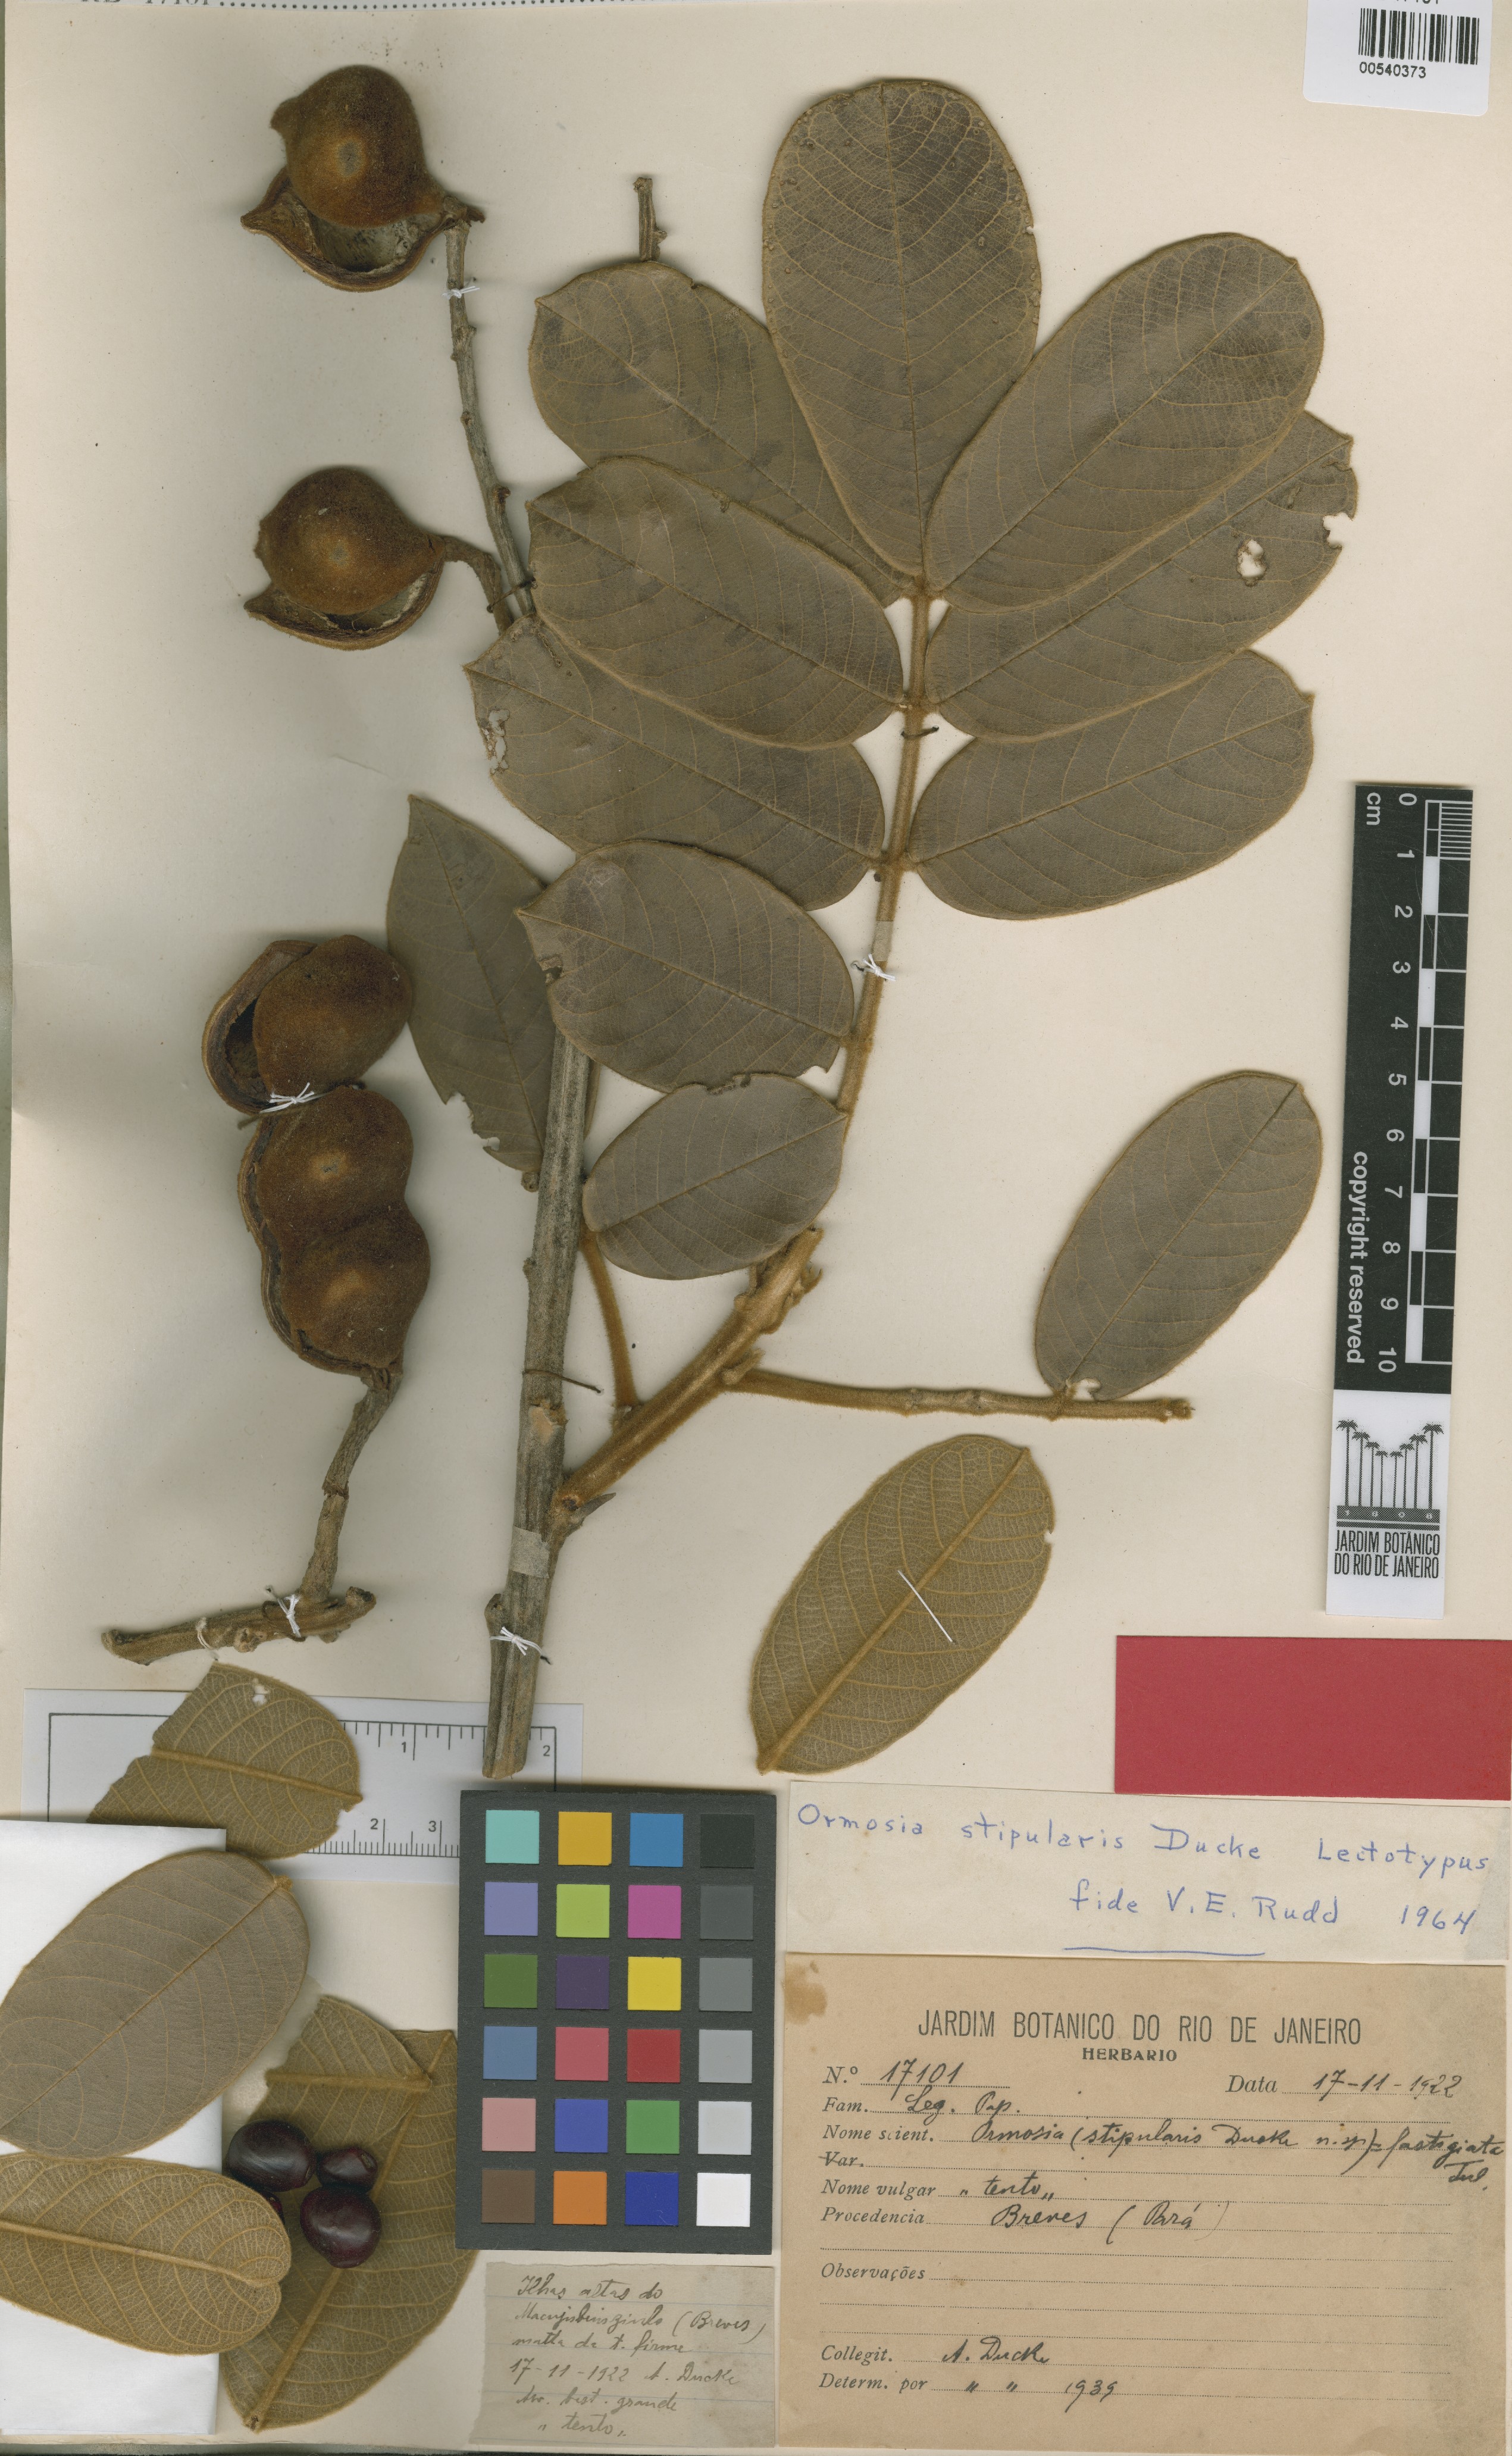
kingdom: Plantae
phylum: Tracheophyta
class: Magnoliopsida
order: Fabales
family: Fabaceae
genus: Ormosia
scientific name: Ormosia stipularis
